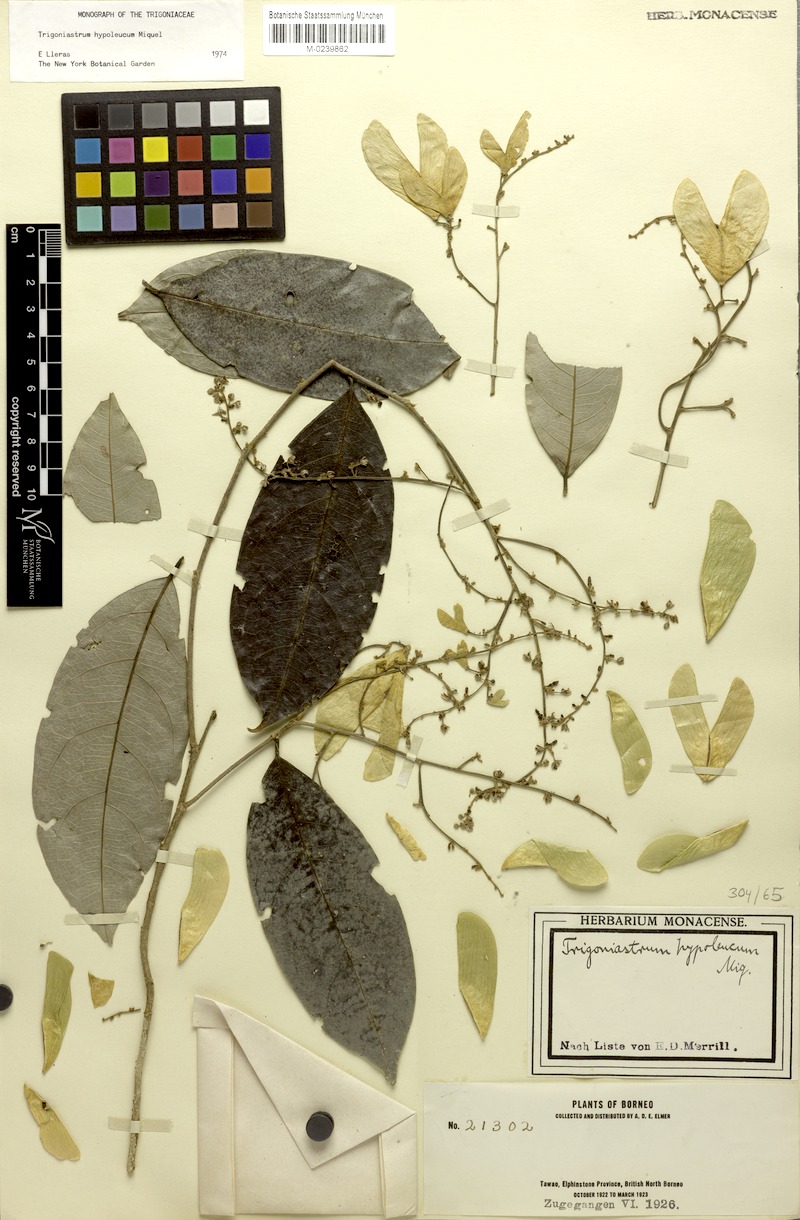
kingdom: Plantae
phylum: Tracheophyta
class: Magnoliopsida
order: Malpighiales
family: Trigoniaceae
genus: Trigoniastrum
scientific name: Trigoniastrum hypoleucum
